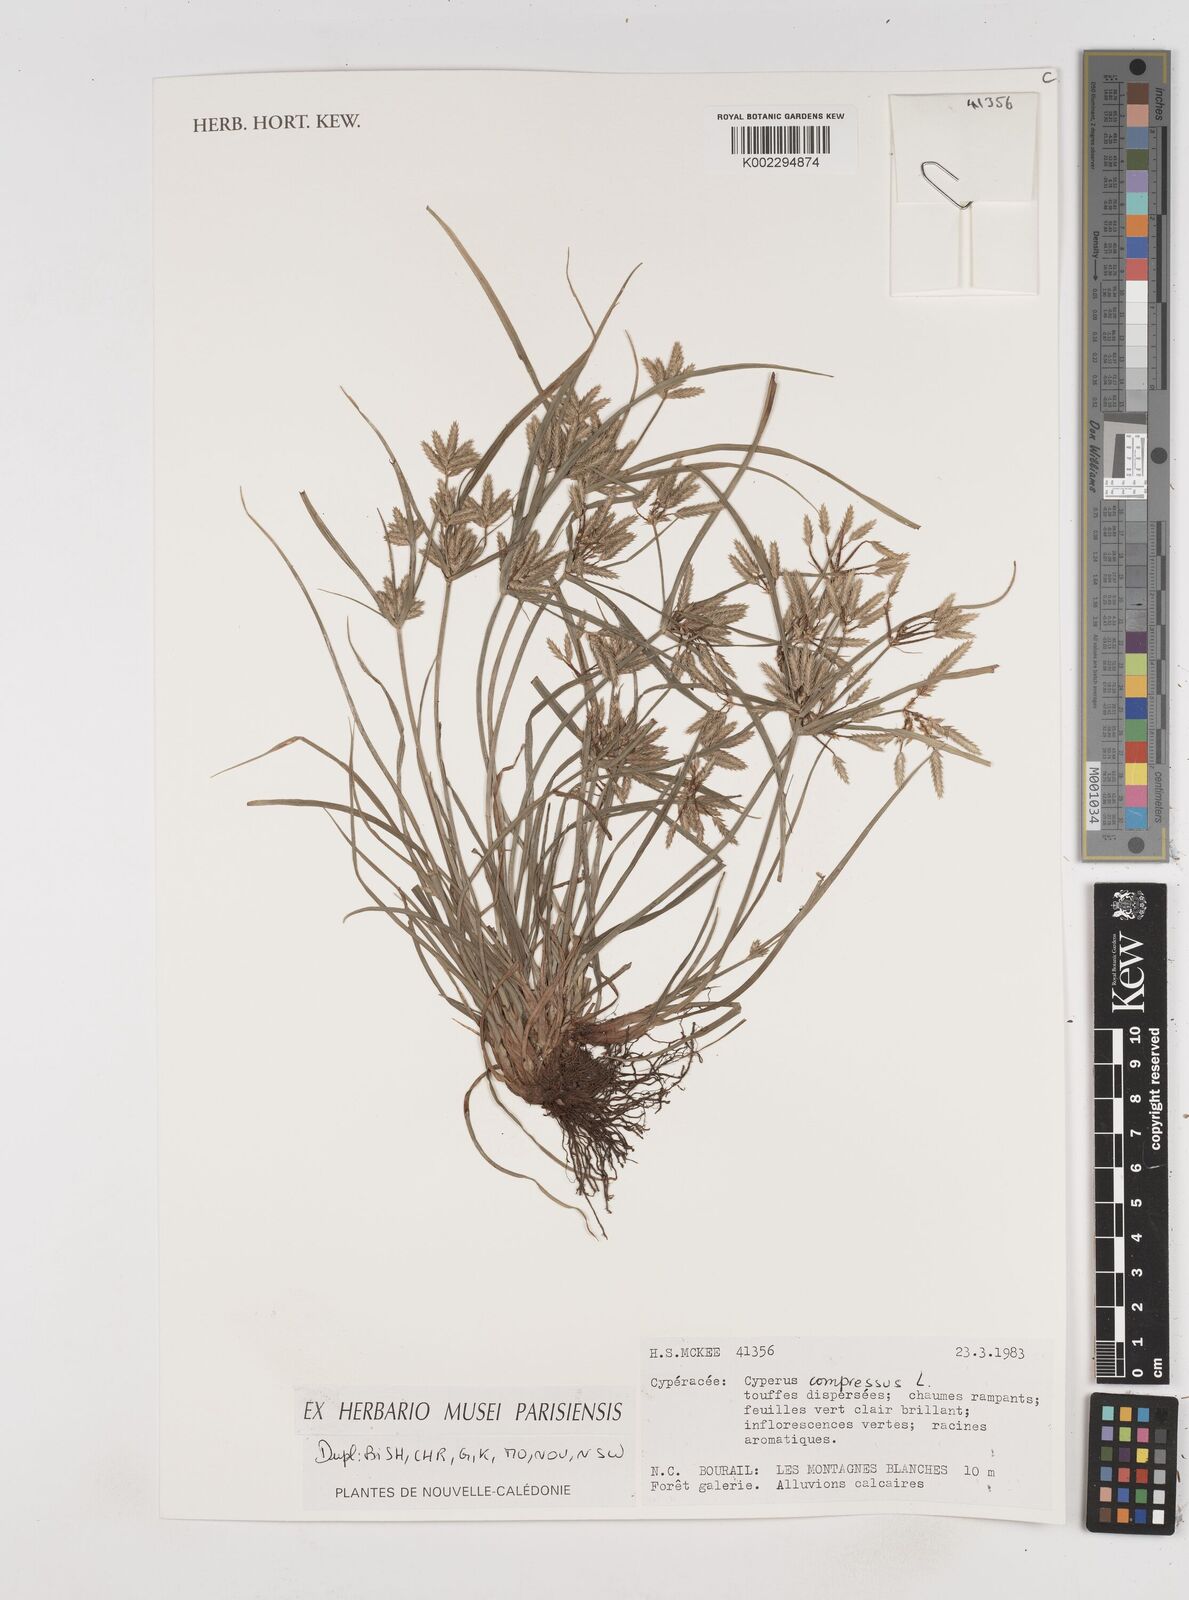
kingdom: Plantae
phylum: Tracheophyta
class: Liliopsida
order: Poales
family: Cyperaceae
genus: Cyperus
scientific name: Cyperus compressus
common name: Poorland flatsedge
